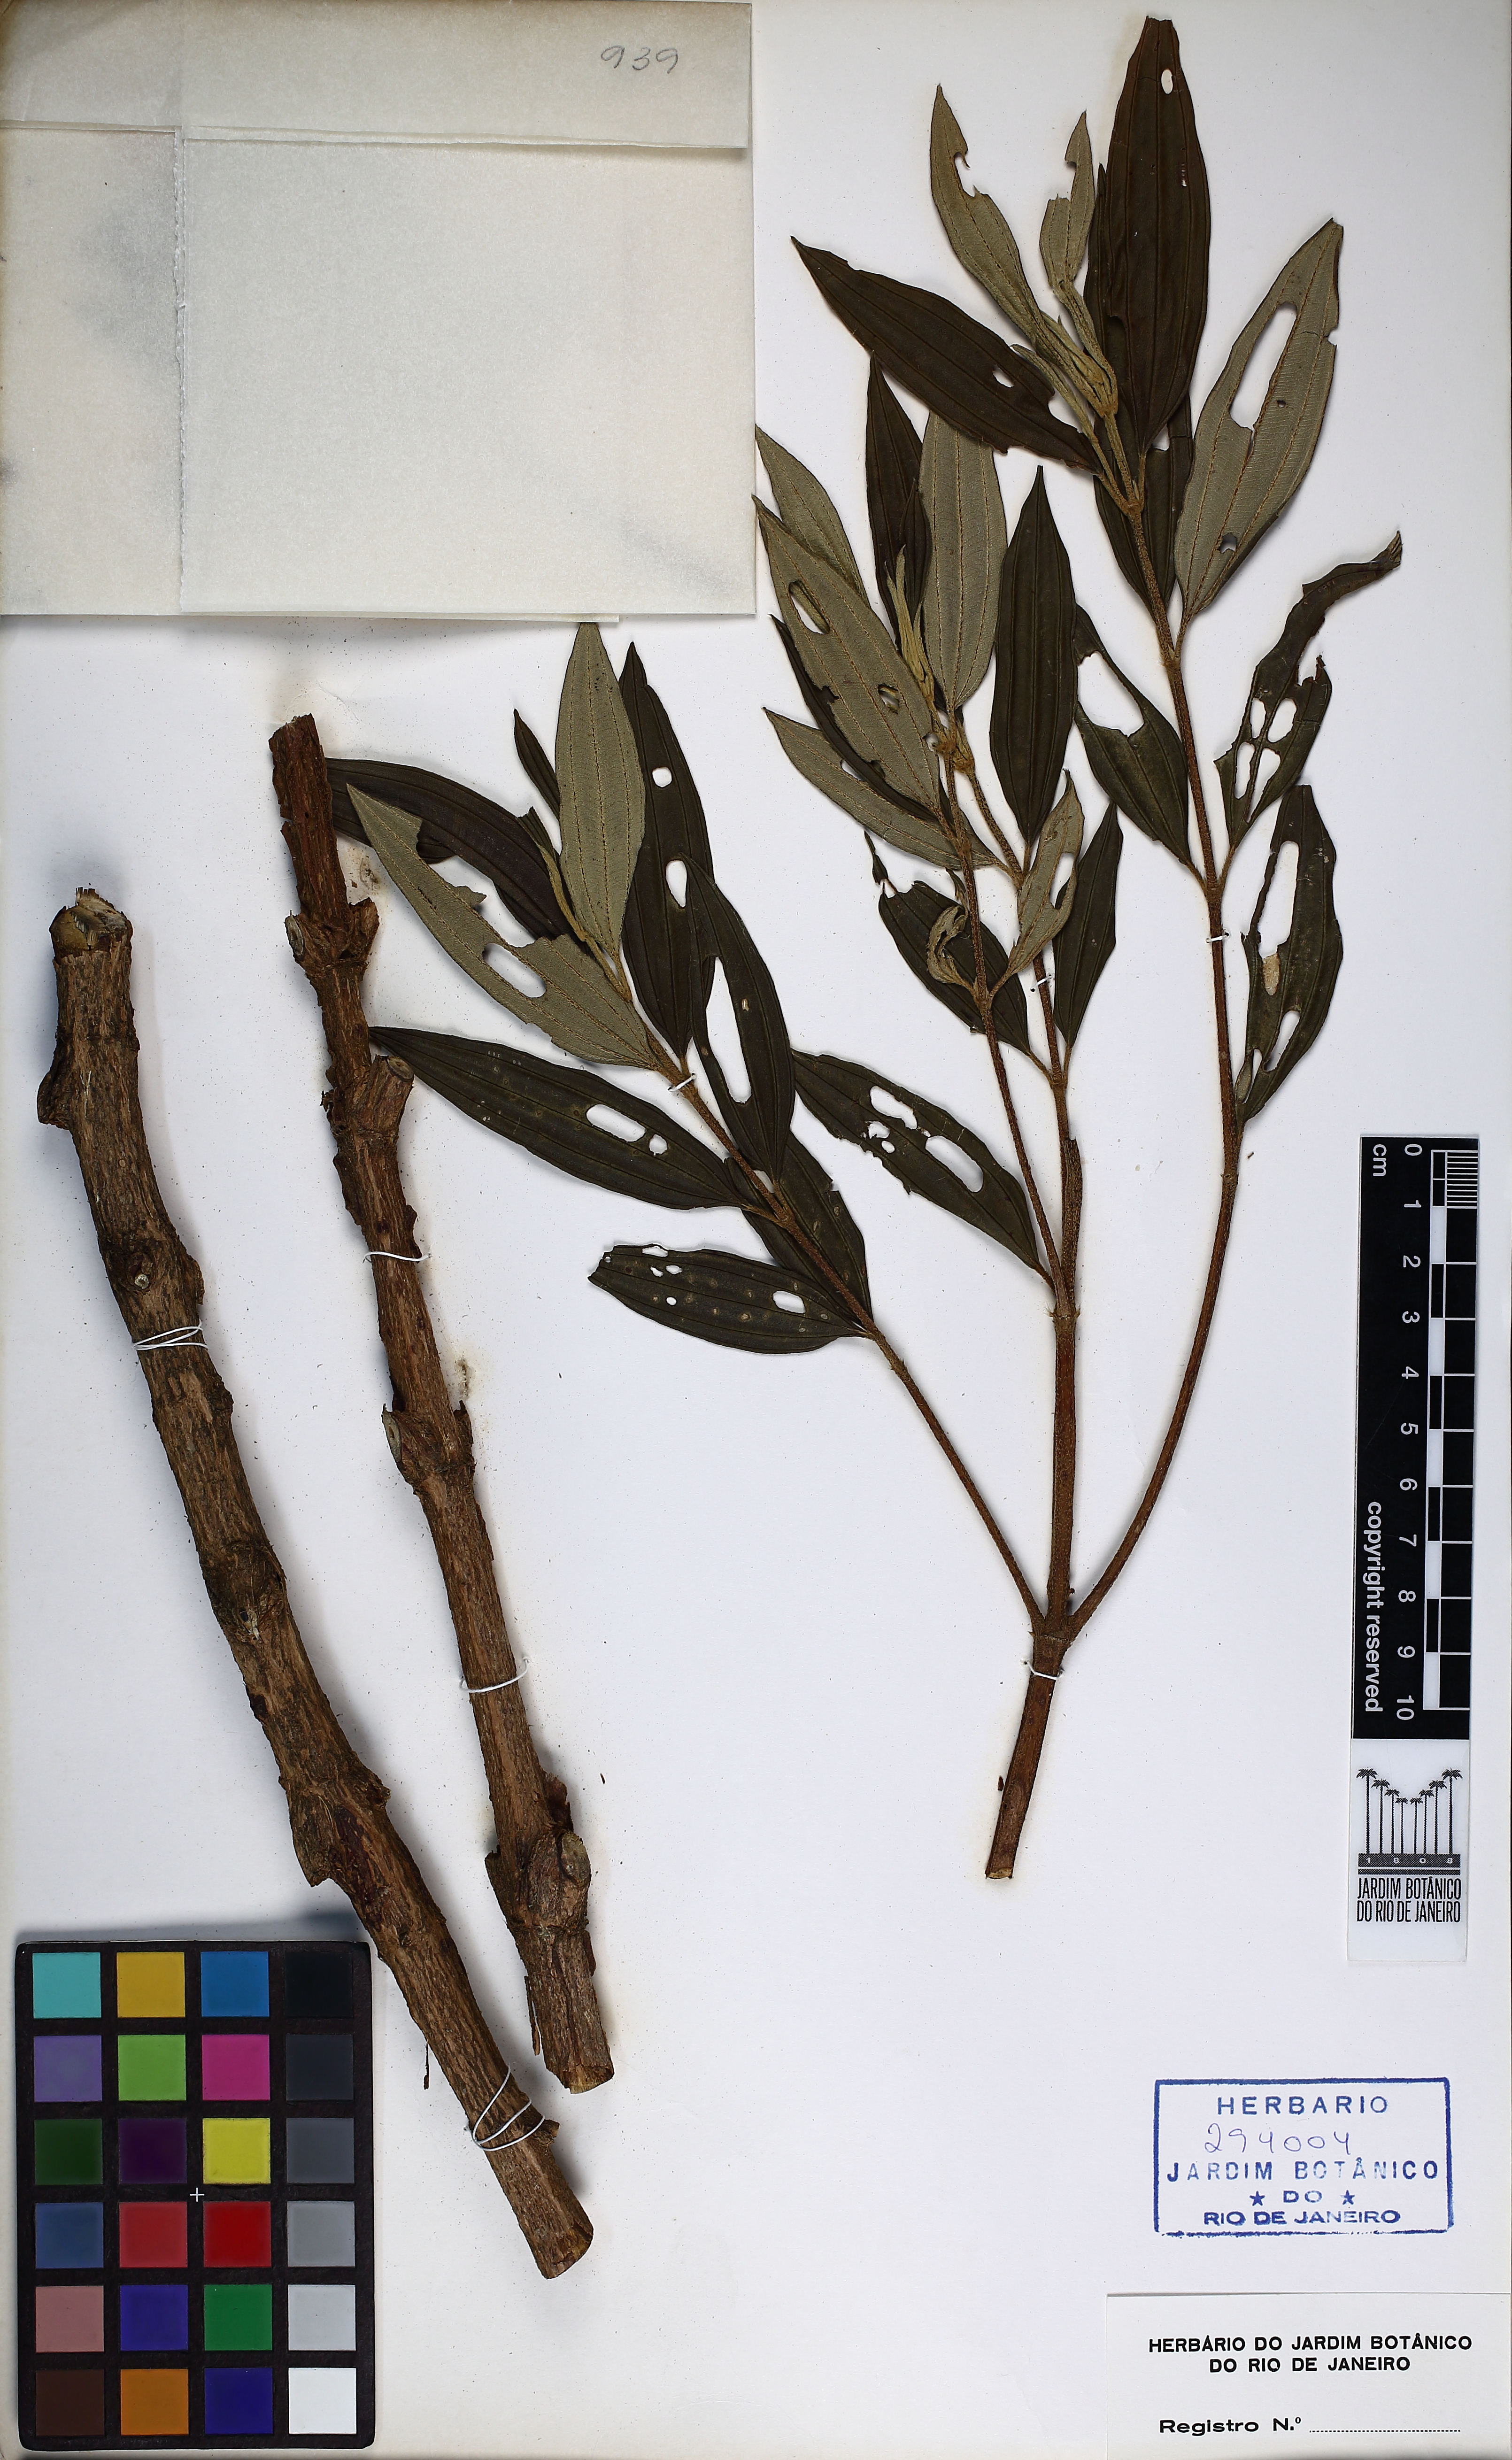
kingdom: Plantae
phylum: Tracheophyta
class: Magnoliopsida
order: Myrtales
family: Melastomataceae
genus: Pleroma
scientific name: Pleroma fissinervium
